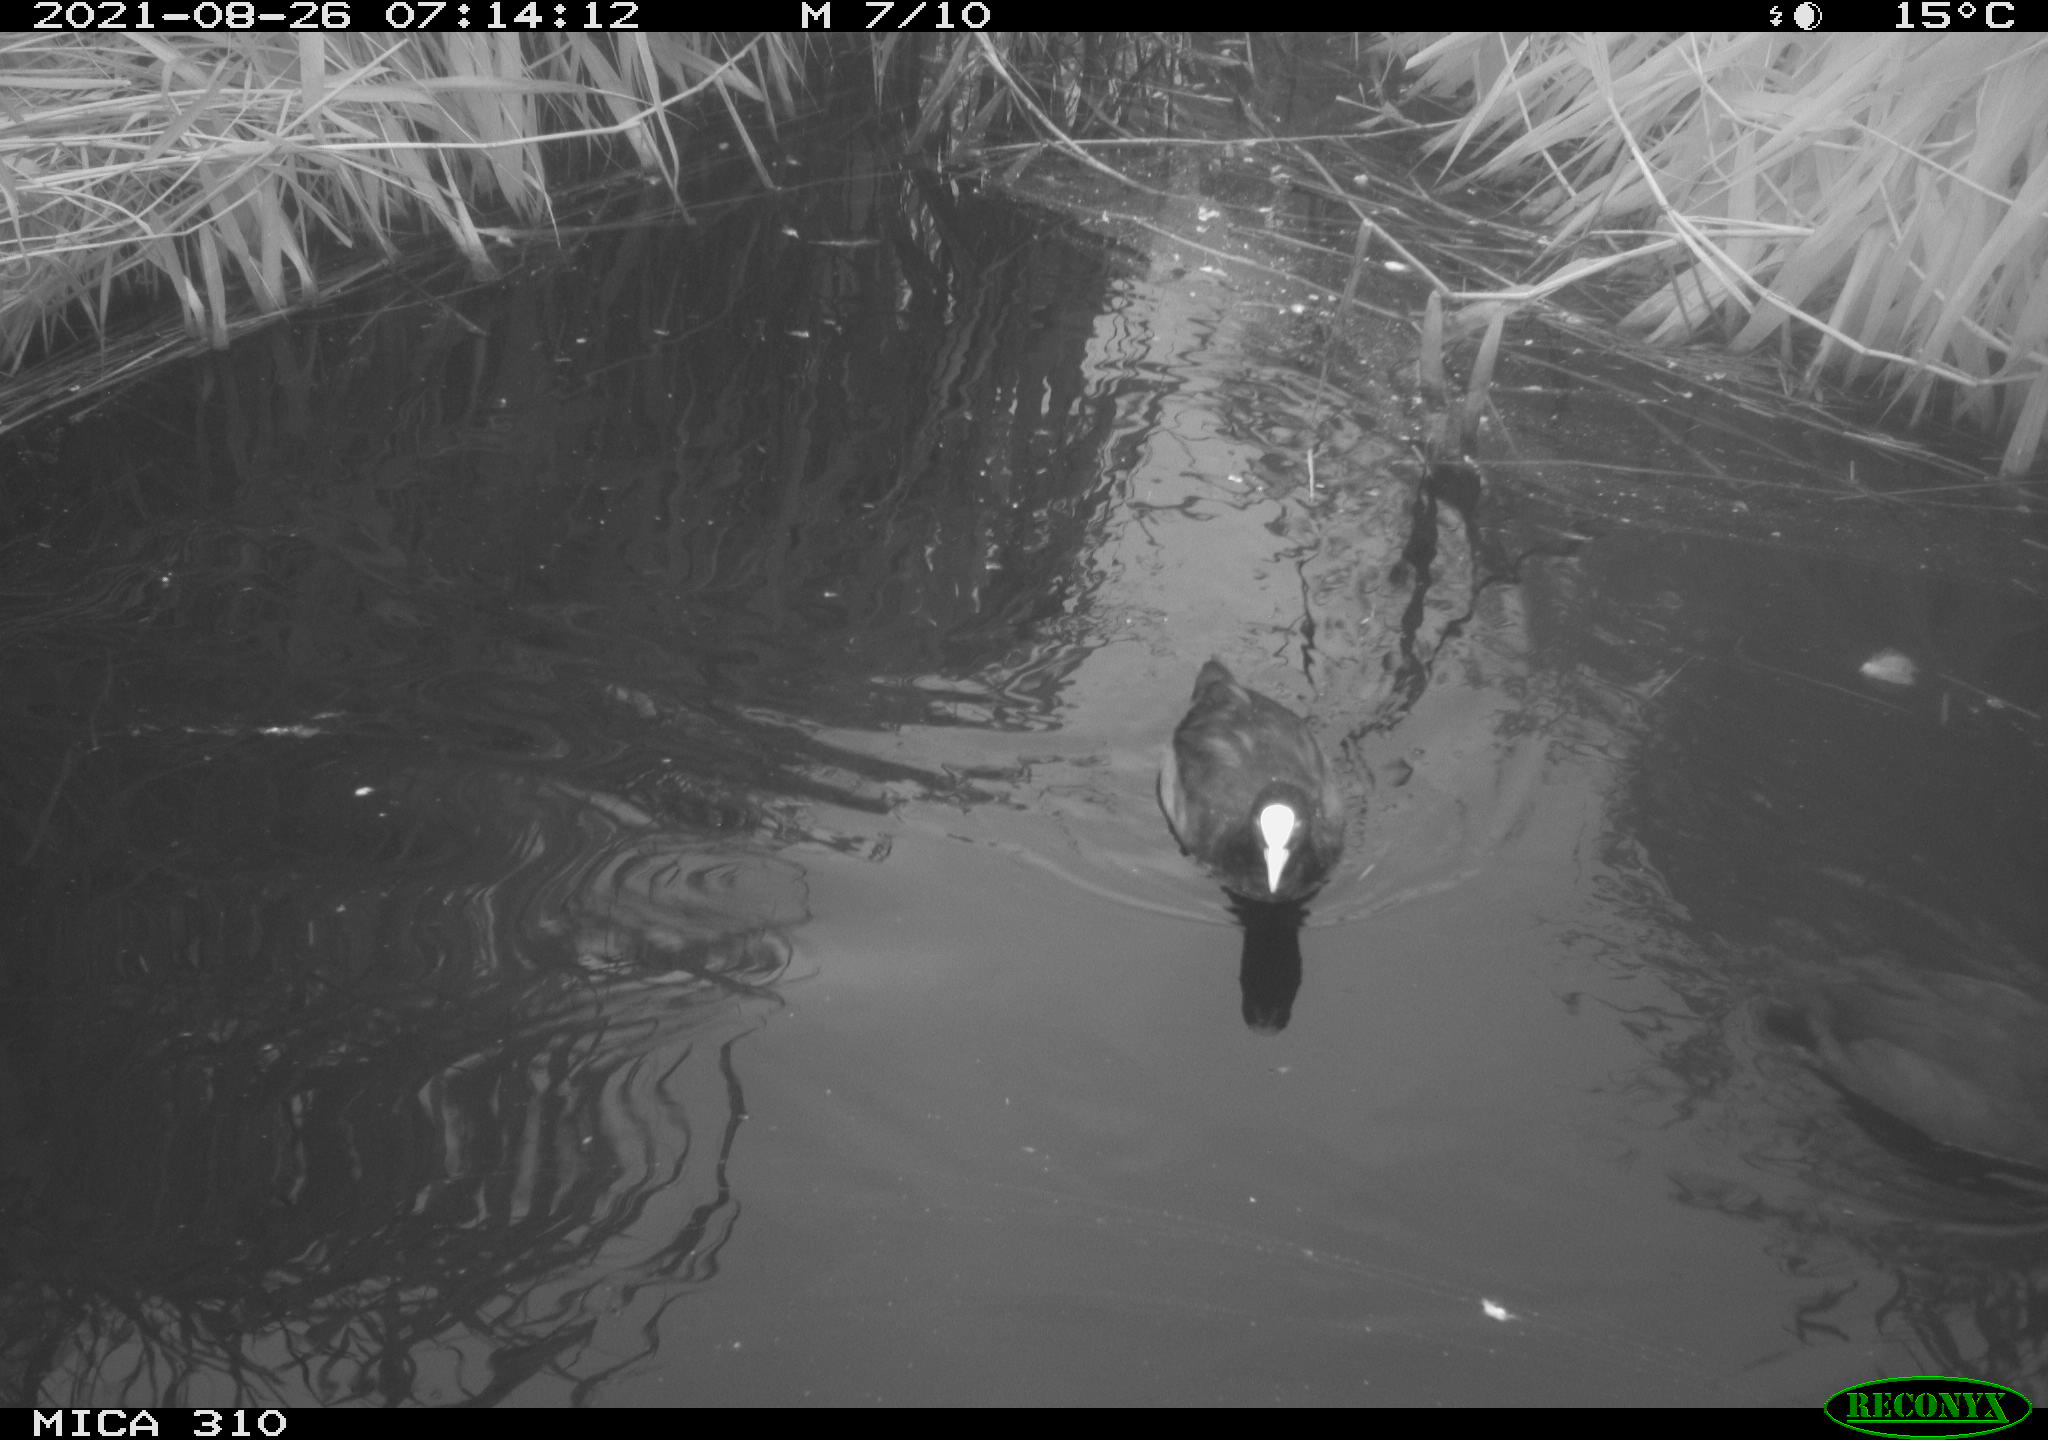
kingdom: Animalia
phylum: Chordata
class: Aves
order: Gruiformes
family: Rallidae
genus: Fulica
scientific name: Fulica atra
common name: Eurasian coot
